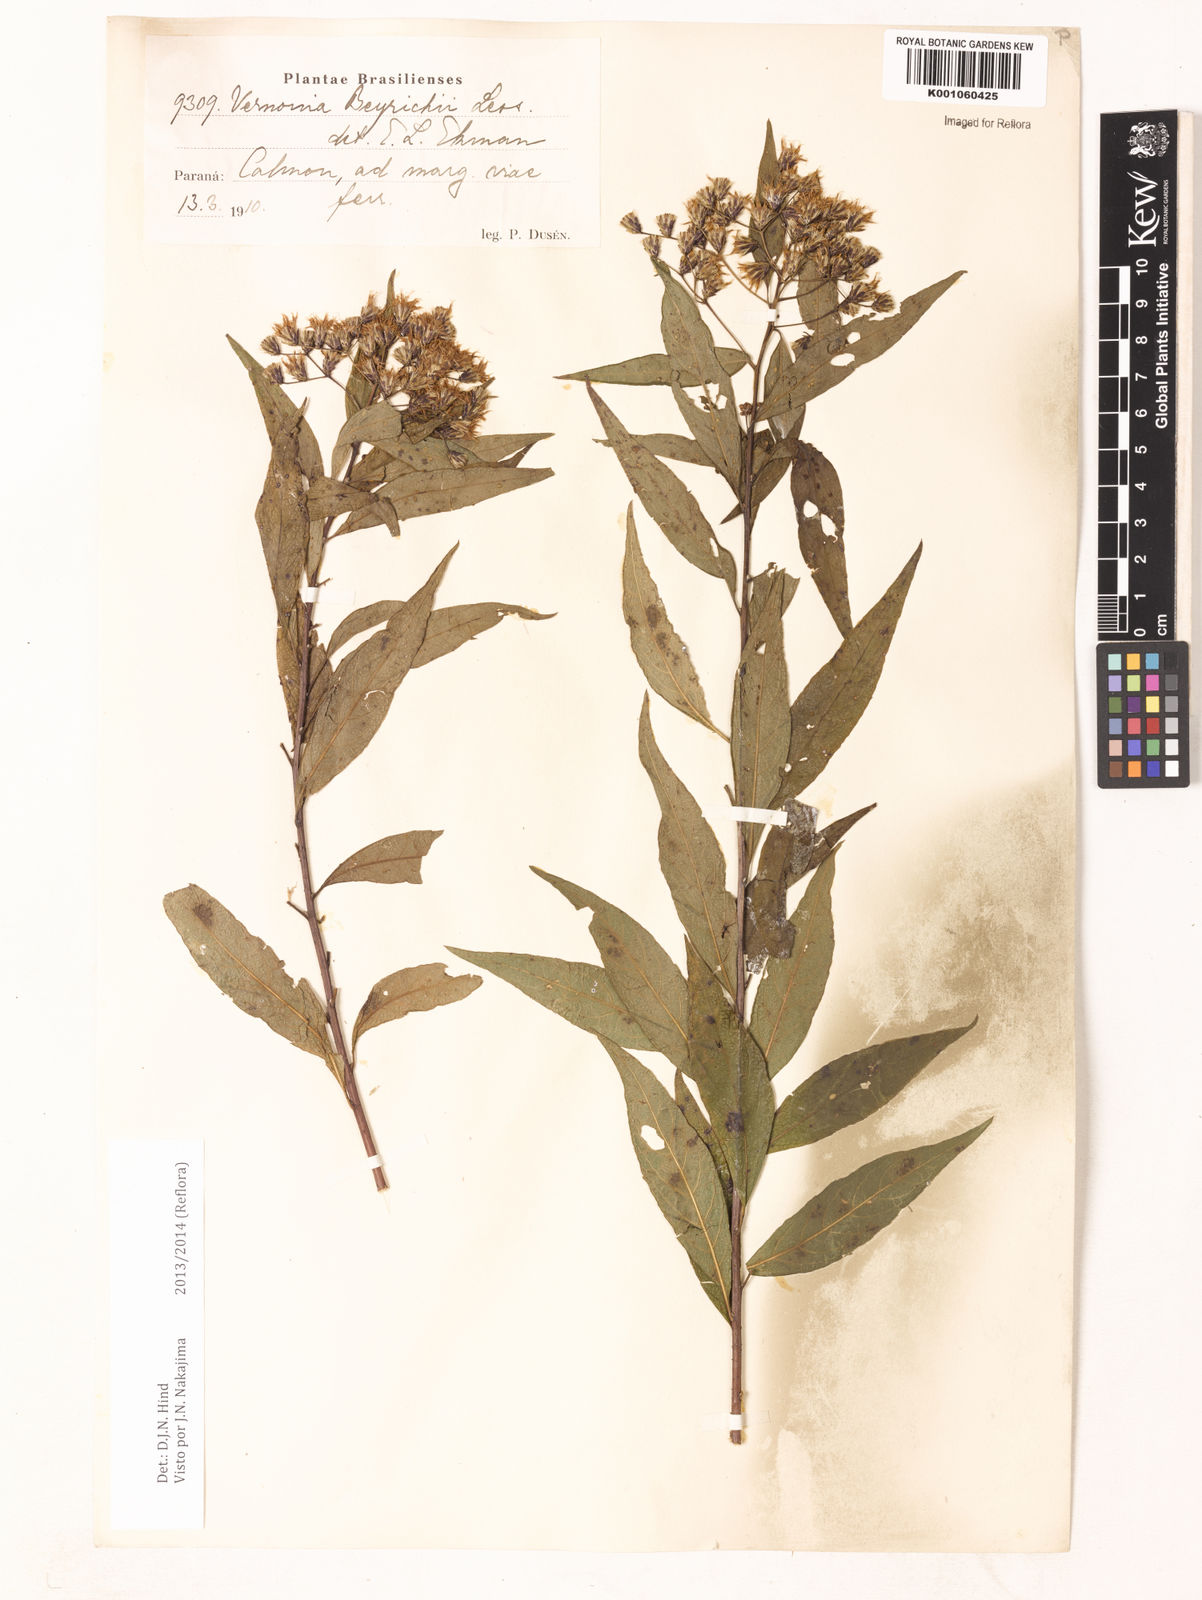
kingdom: Plantae
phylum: Tracheophyta
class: Magnoliopsida
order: Asterales
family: Asteraceae
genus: Vernonanthura
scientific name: Vernonanthura beyrichii
